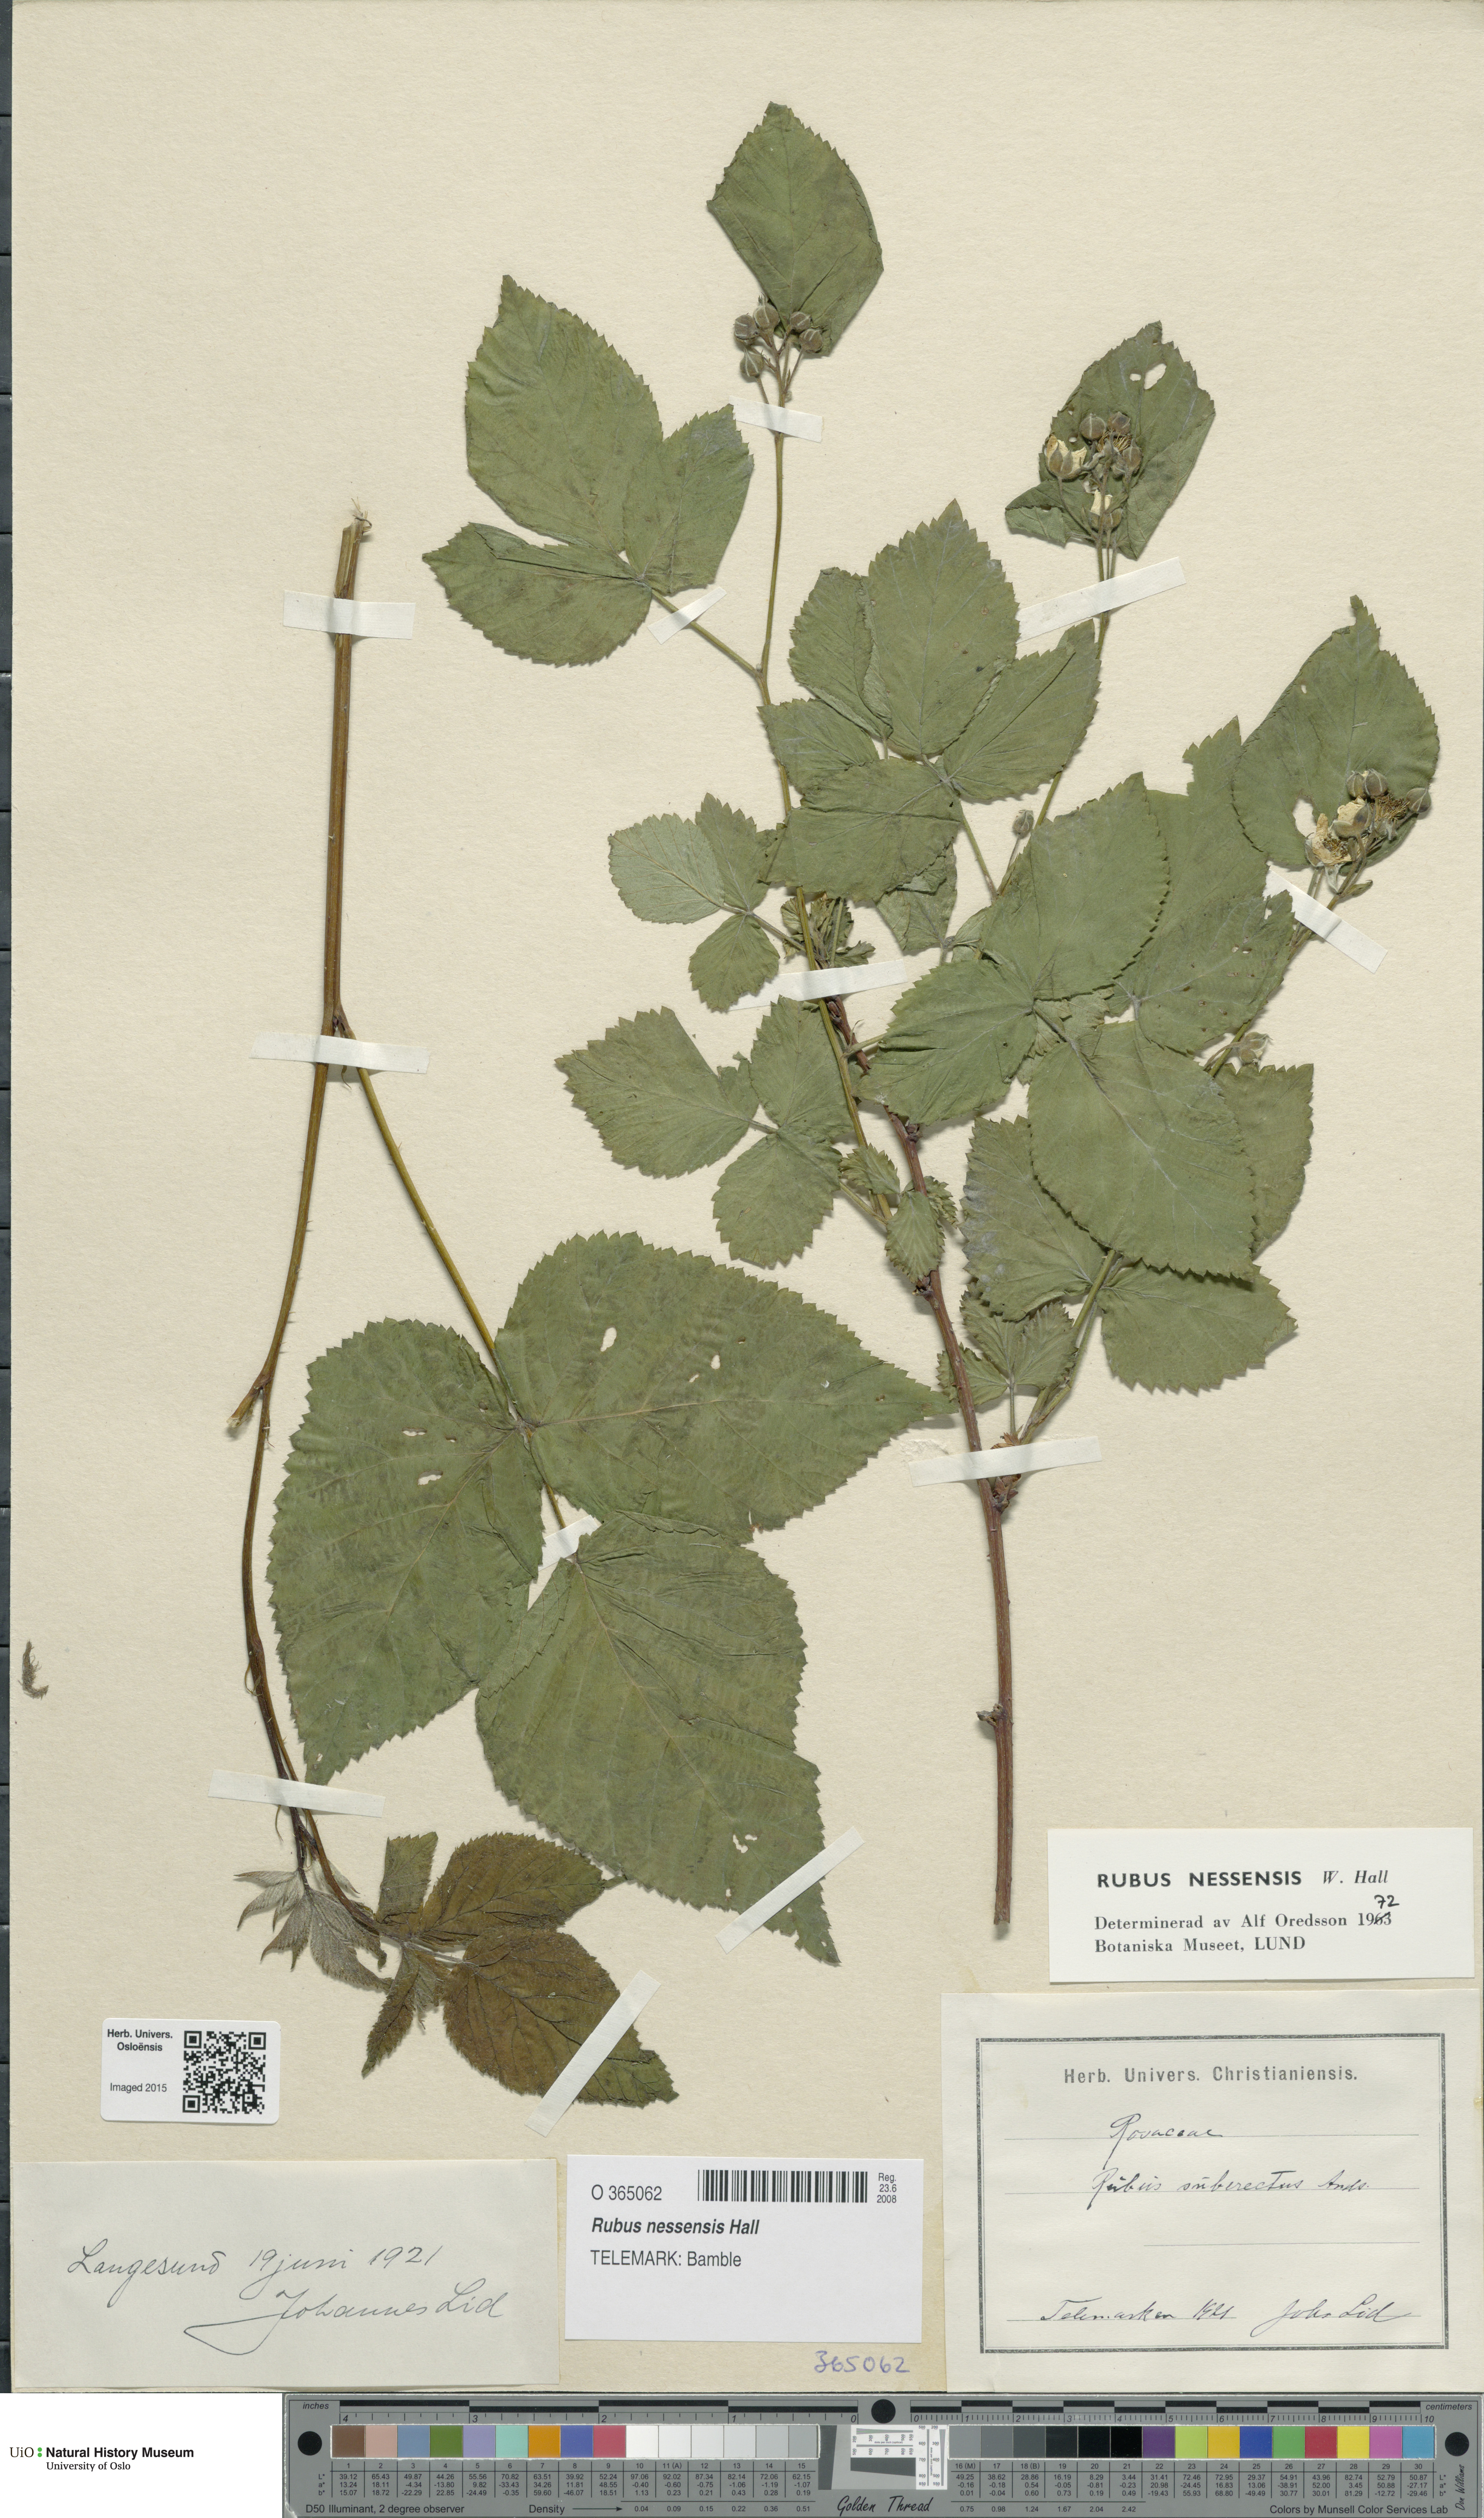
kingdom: Plantae
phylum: Tracheophyta
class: Magnoliopsida
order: Rosales
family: Rosaceae
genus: Rubus
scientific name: Rubus polonicus
